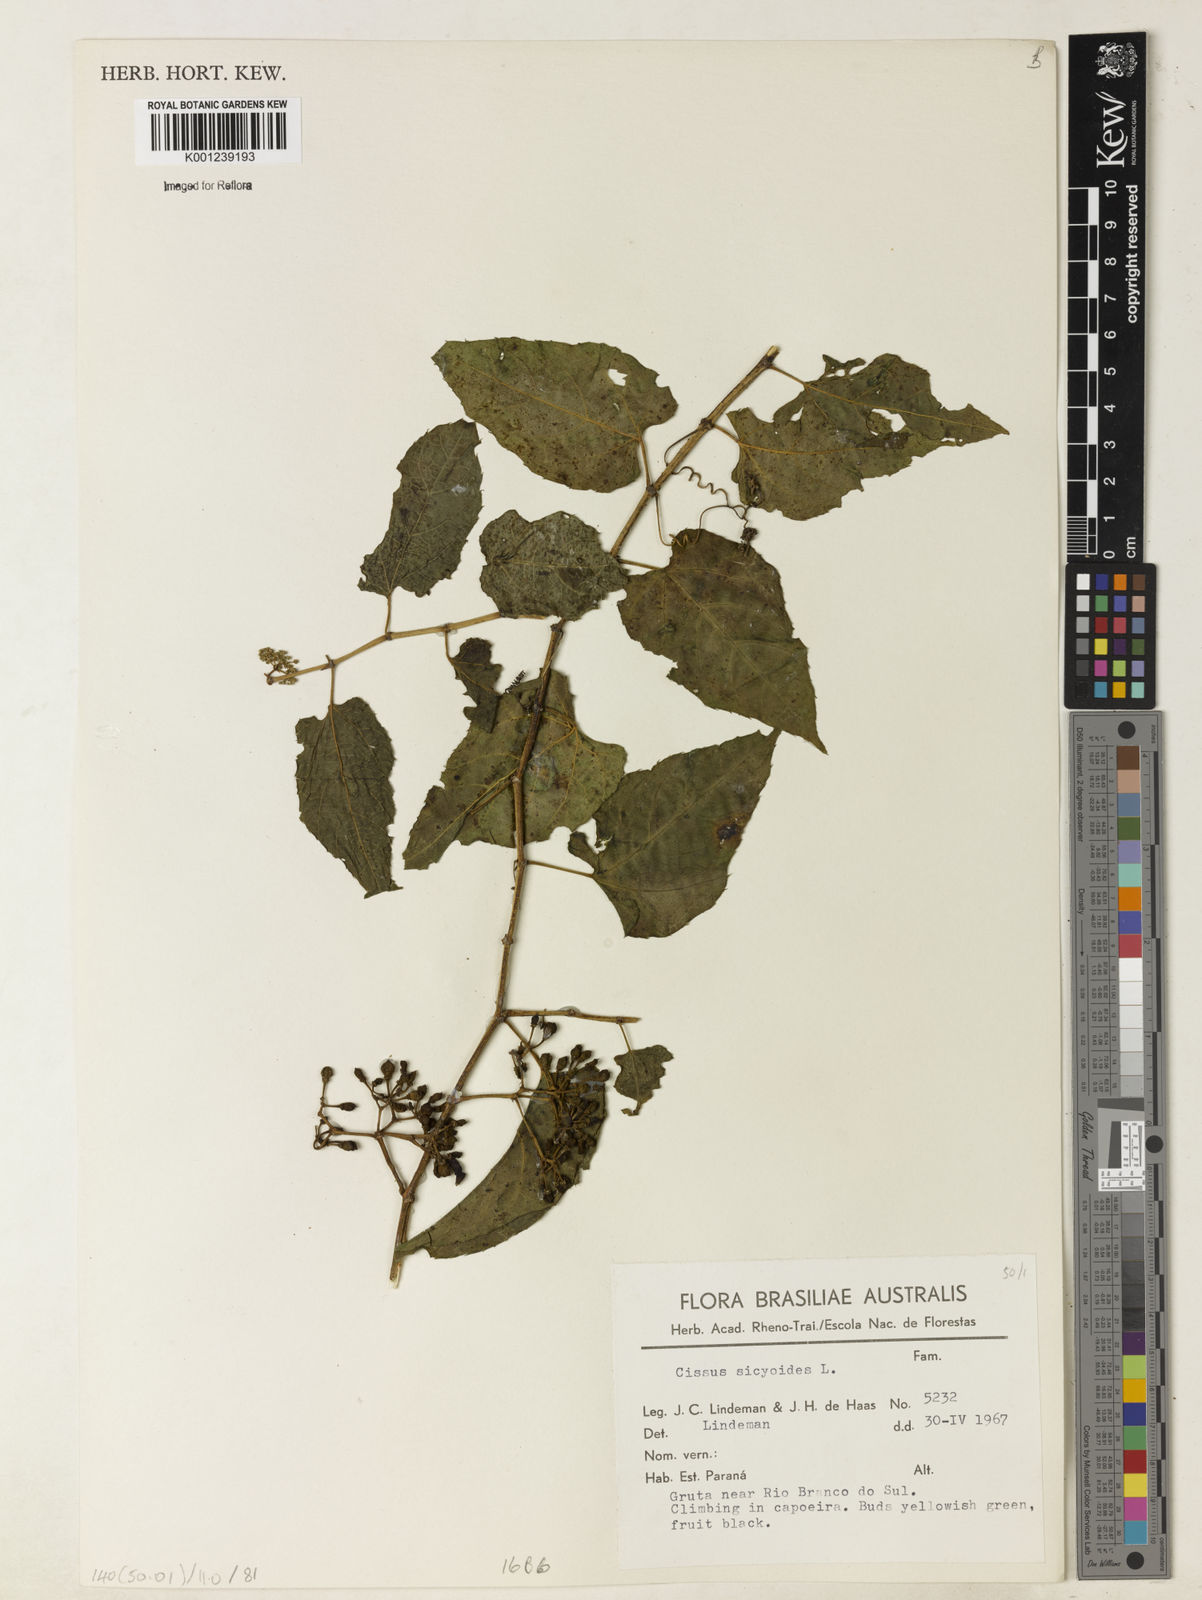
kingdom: Plantae
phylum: Tracheophyta
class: Magnoliopsida
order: Vitales
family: Vitaceae
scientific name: Vitaceae
